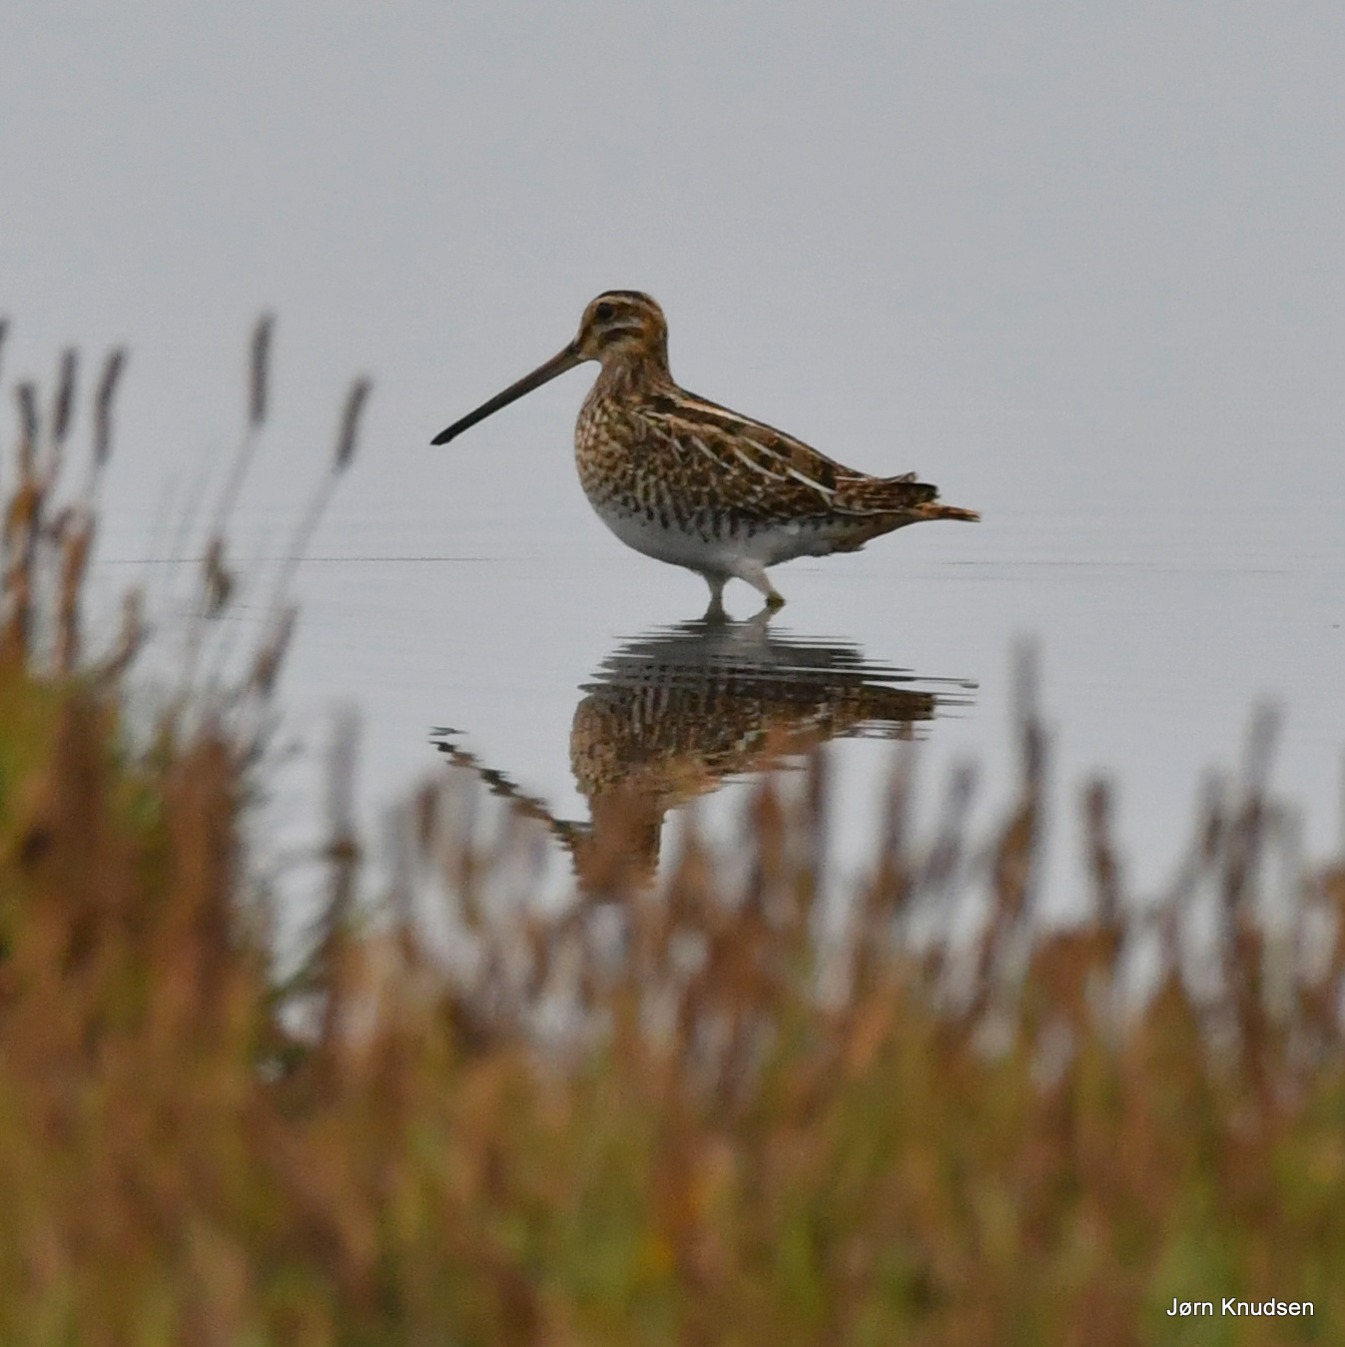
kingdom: Animalia
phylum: Chordata
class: Aves
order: Charadriiformes
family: Scolopacidae
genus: Gallinago
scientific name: Gallinago gallinago
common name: Dobbeltbekkasin
